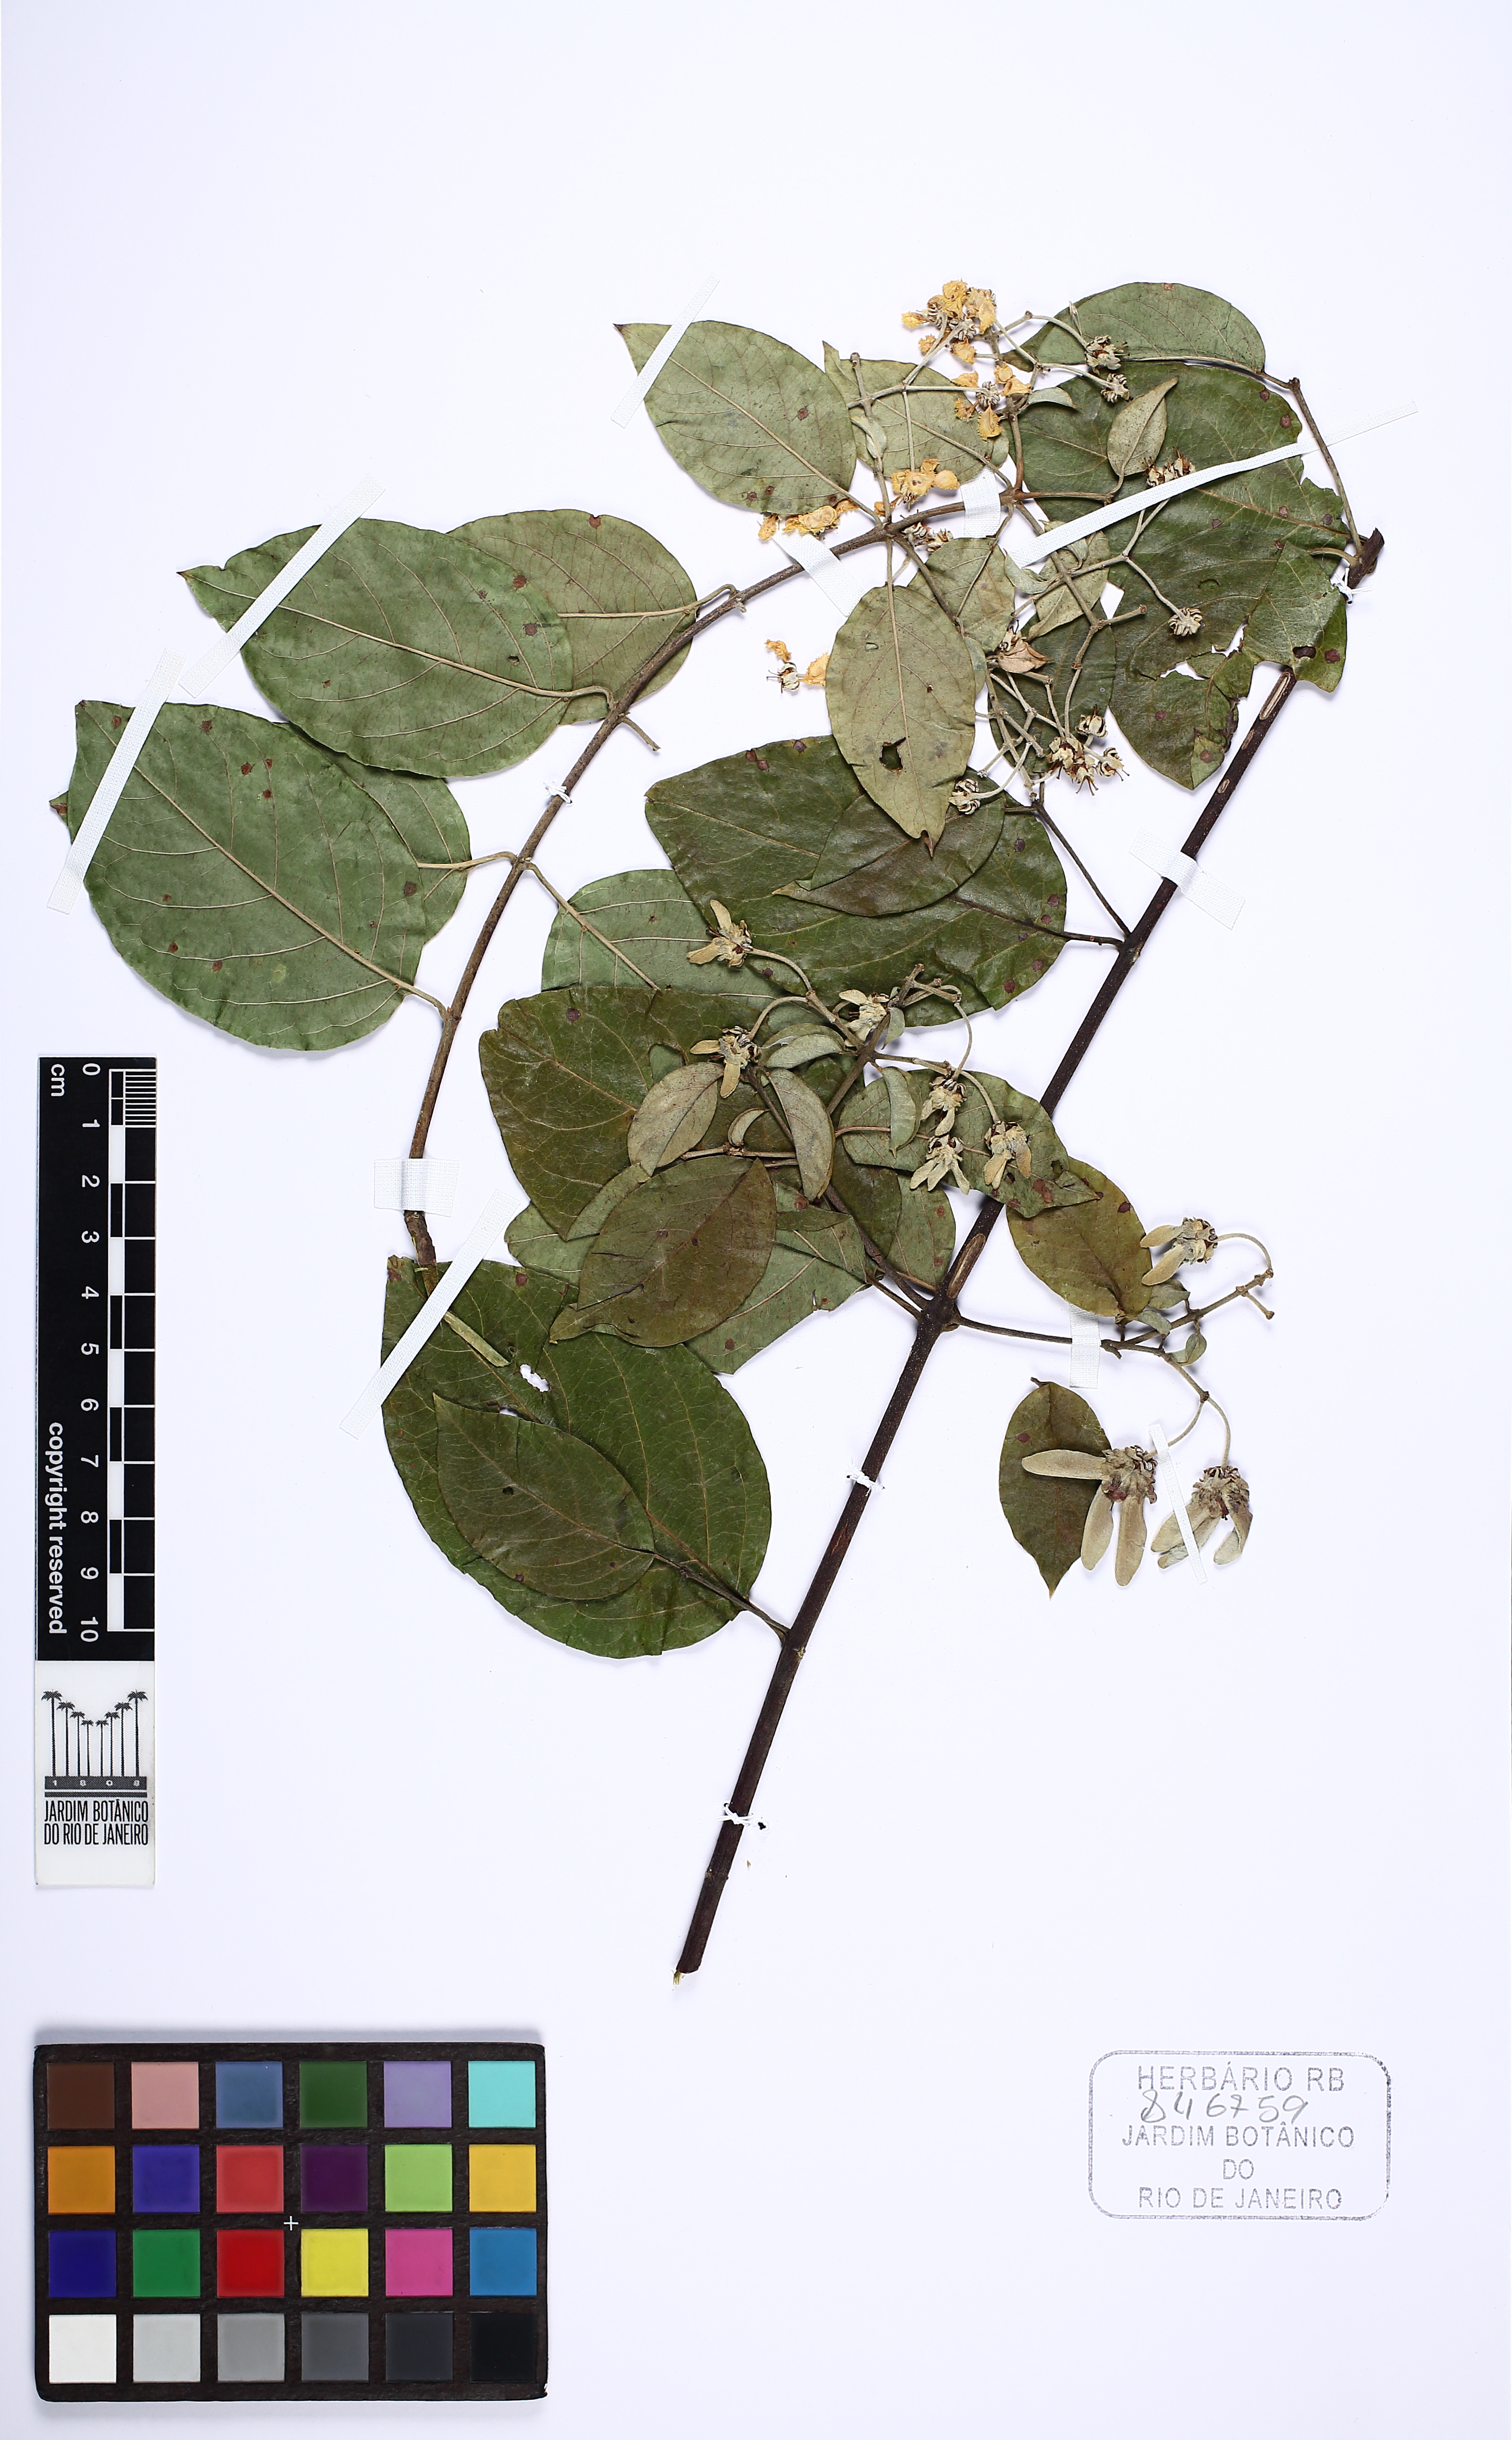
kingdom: Plantae
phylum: Tracheophyta
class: Magnoliopsida
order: Malpighiales
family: Malpighiaceae
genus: Banisteriopsis
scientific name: Banisteriopsis adenopoda
